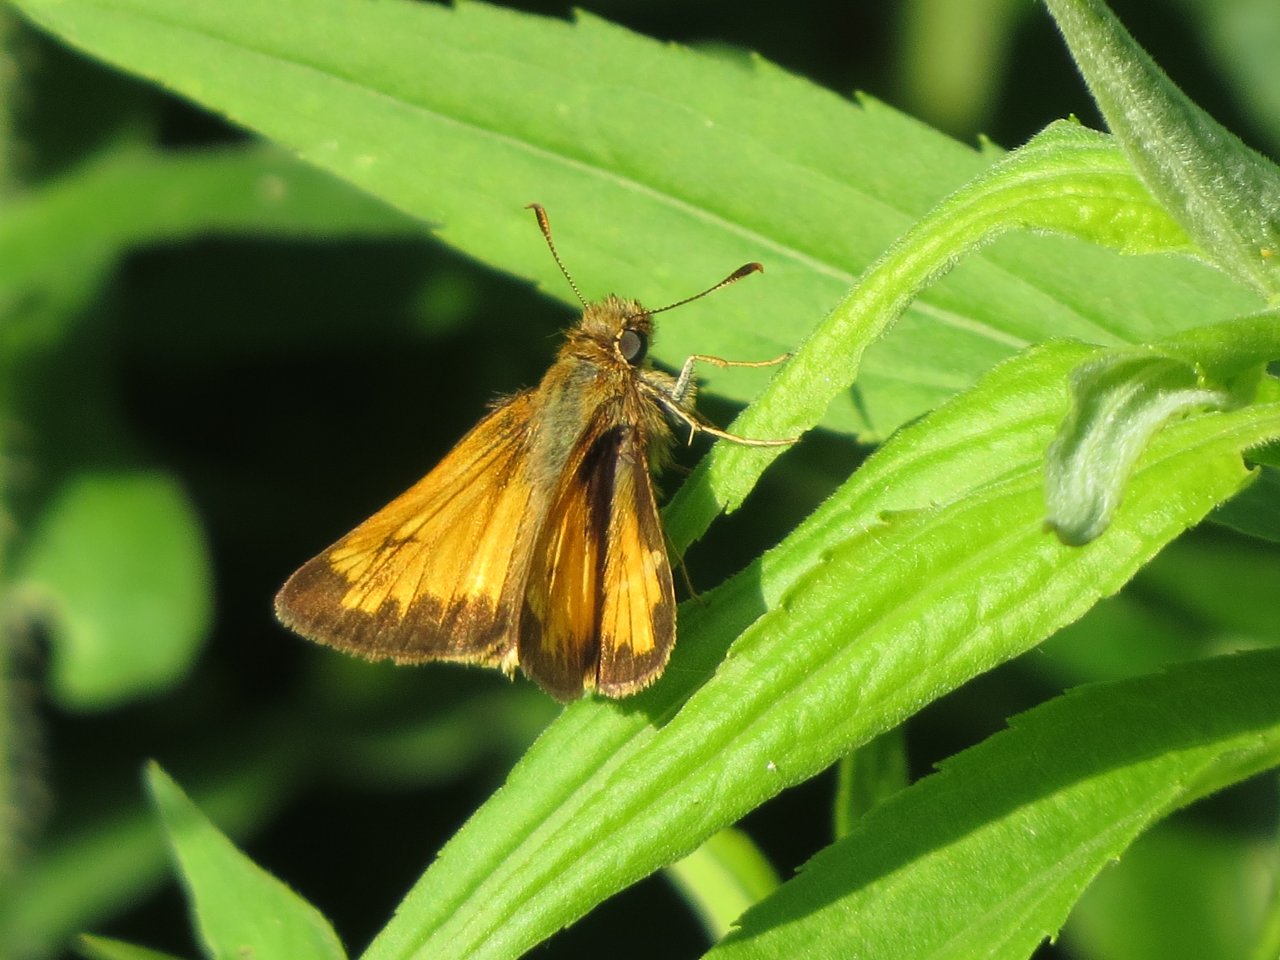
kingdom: Animalia
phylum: Arthropoda
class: Insecta
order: Lepidoptera
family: Hesperiidae
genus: Lon
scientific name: Lon hobomok
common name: Hobomok Skipper
